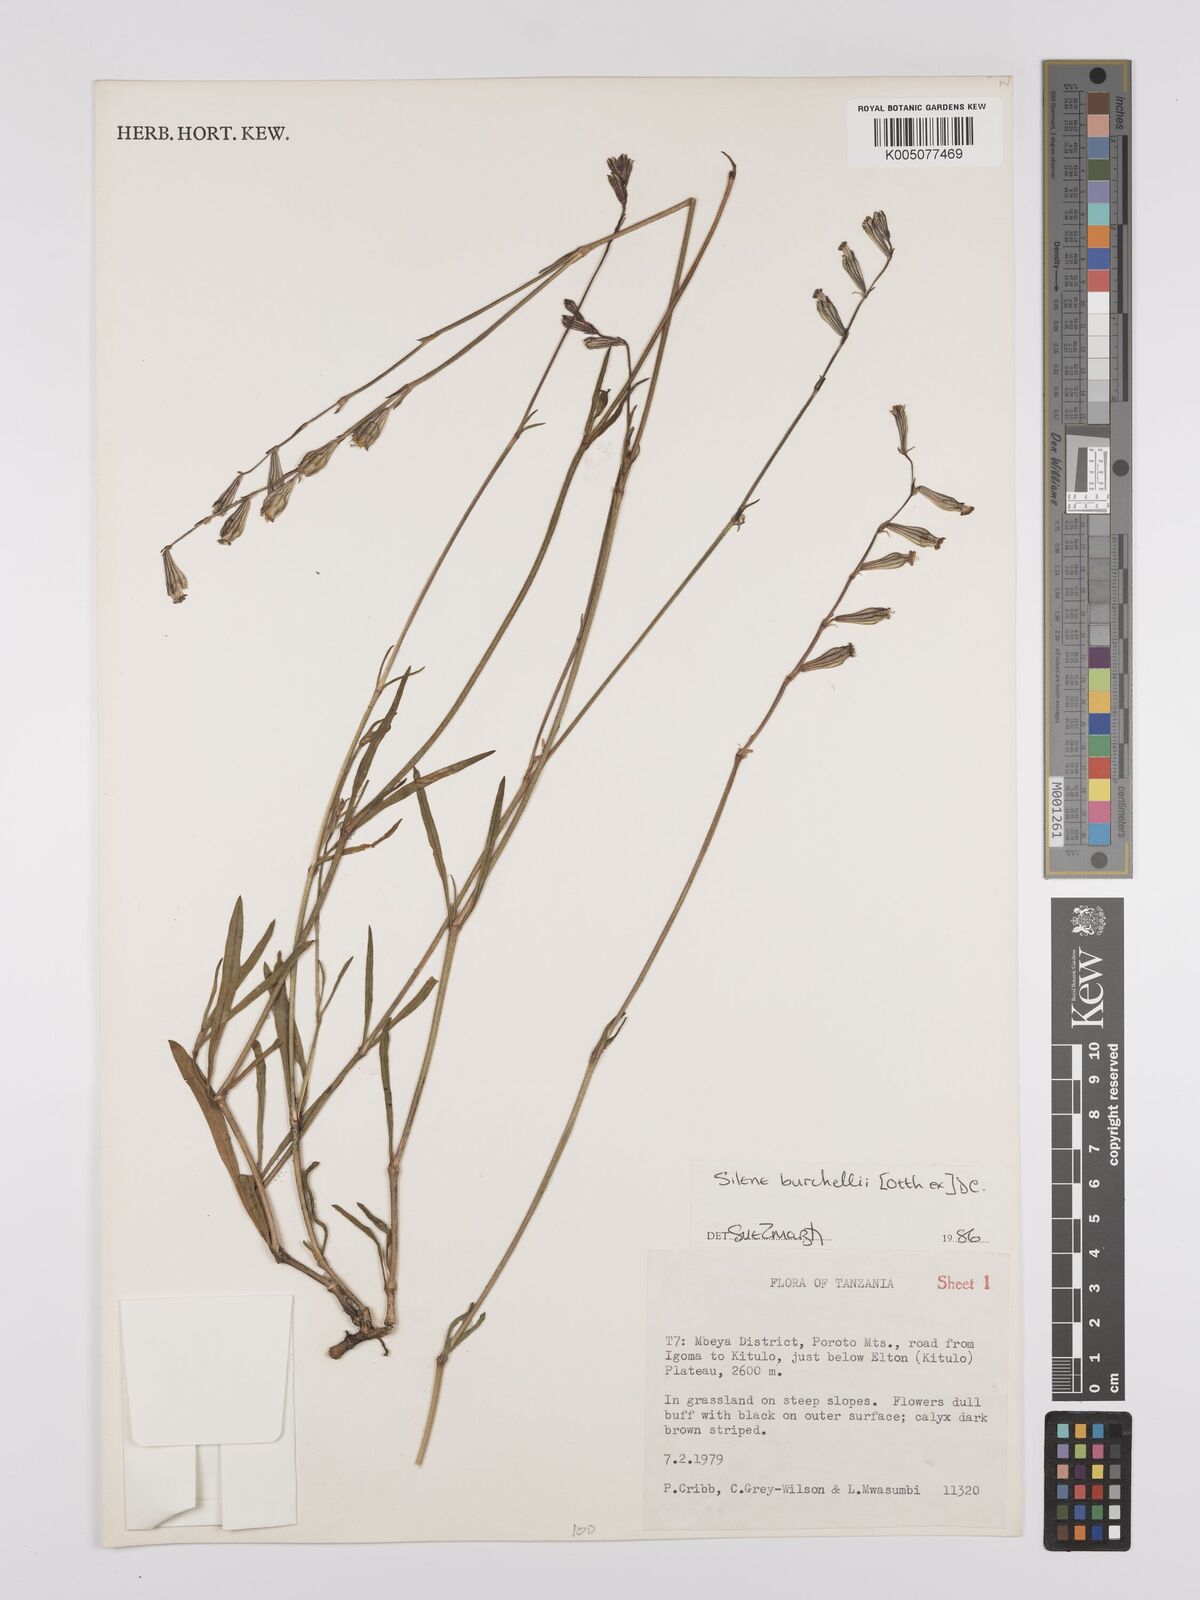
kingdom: Plantae
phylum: Tracheophyta
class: Magnoliopsida
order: Caryophyllales
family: Caryophyllaceae
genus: Silene
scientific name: Silene burchellii
